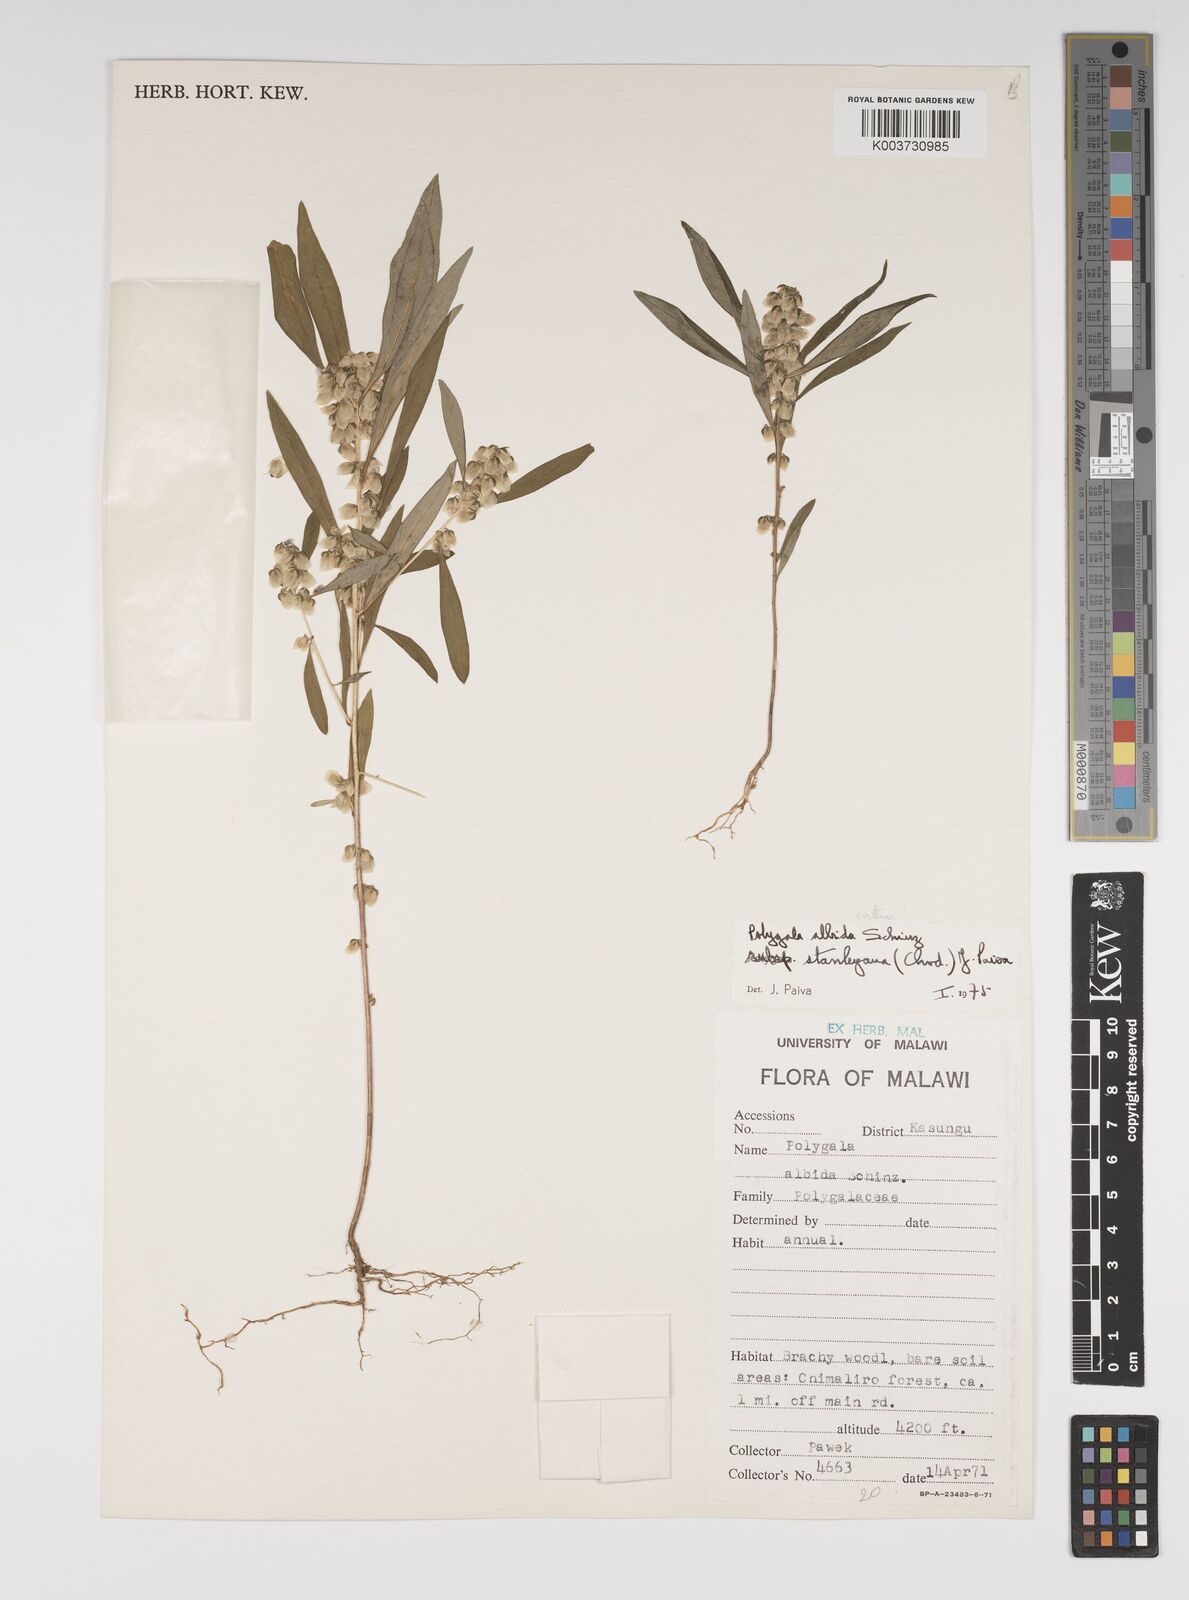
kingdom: Plantae
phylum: Tracheophyta
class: Magnoliopsida
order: Fabales
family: Polygalaceae
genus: Polygala
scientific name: Polygala albida
